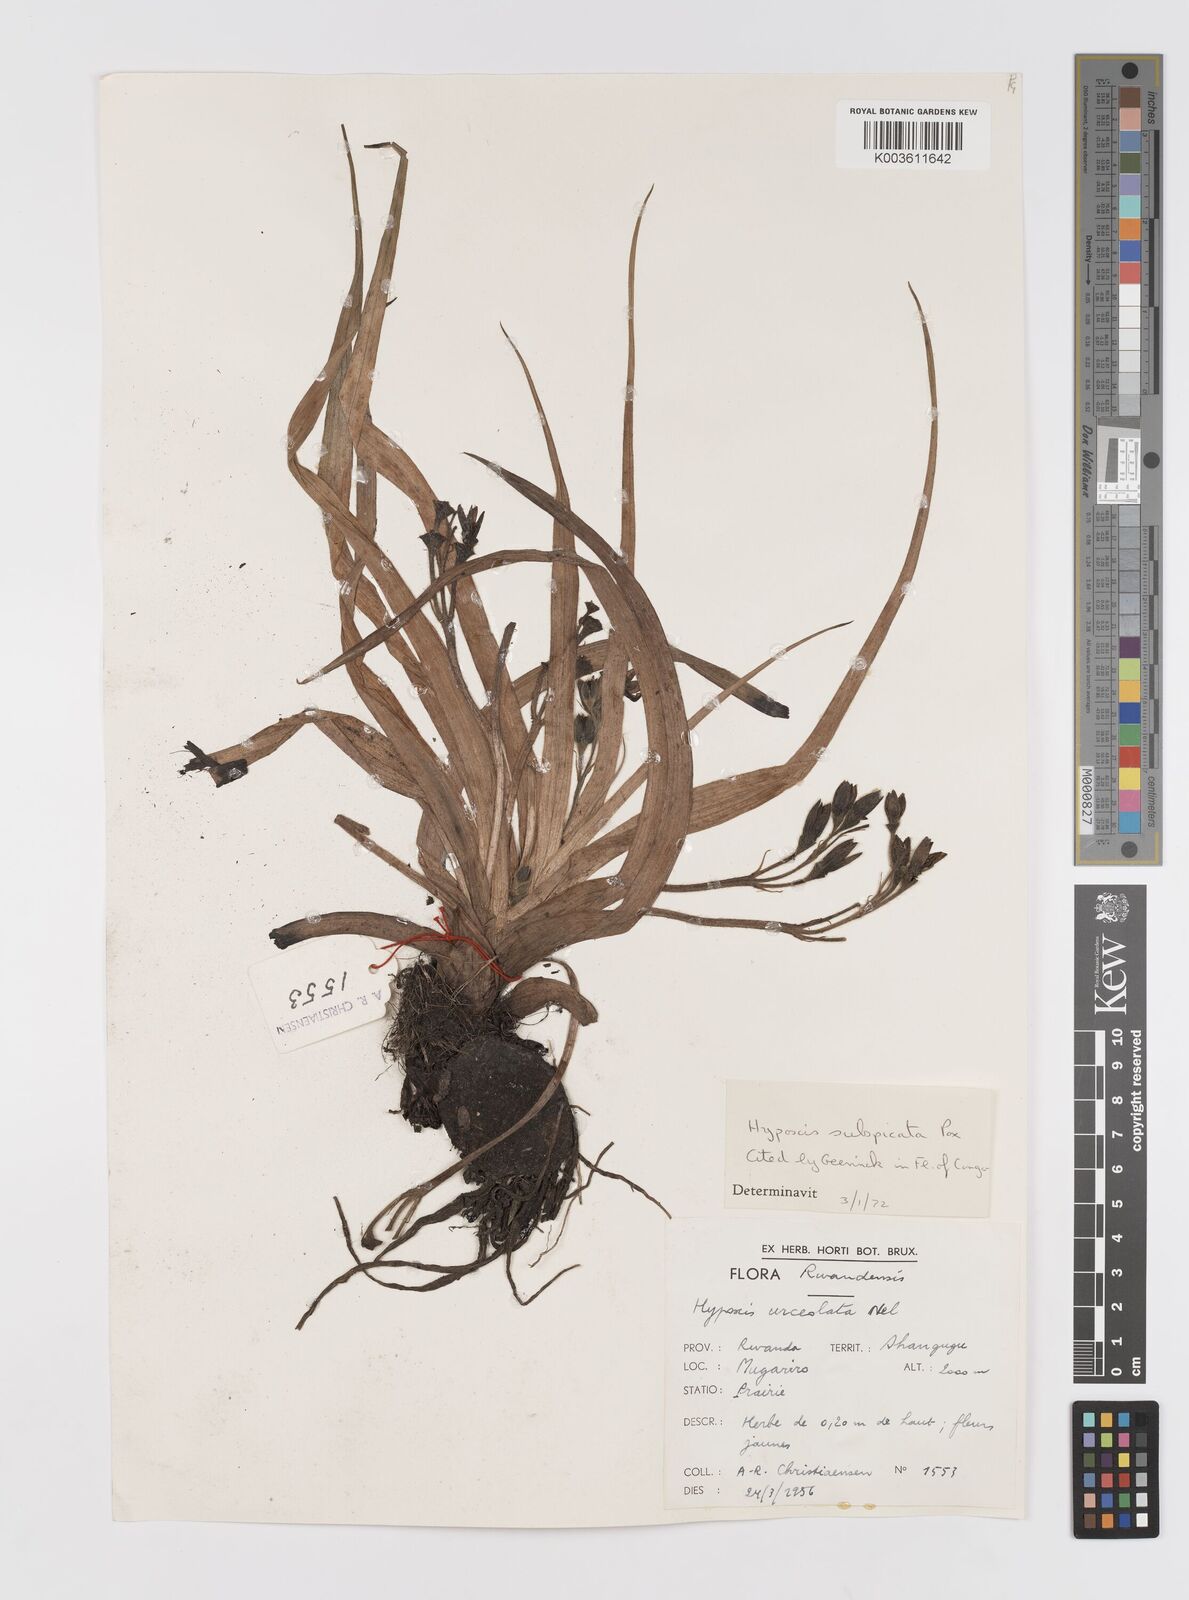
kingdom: Plantae
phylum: Tracheophyta
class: Liliopsida
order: Asparagales
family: Hypoxidaceae
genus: Hypoxis
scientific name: Hypoxis polystachya
